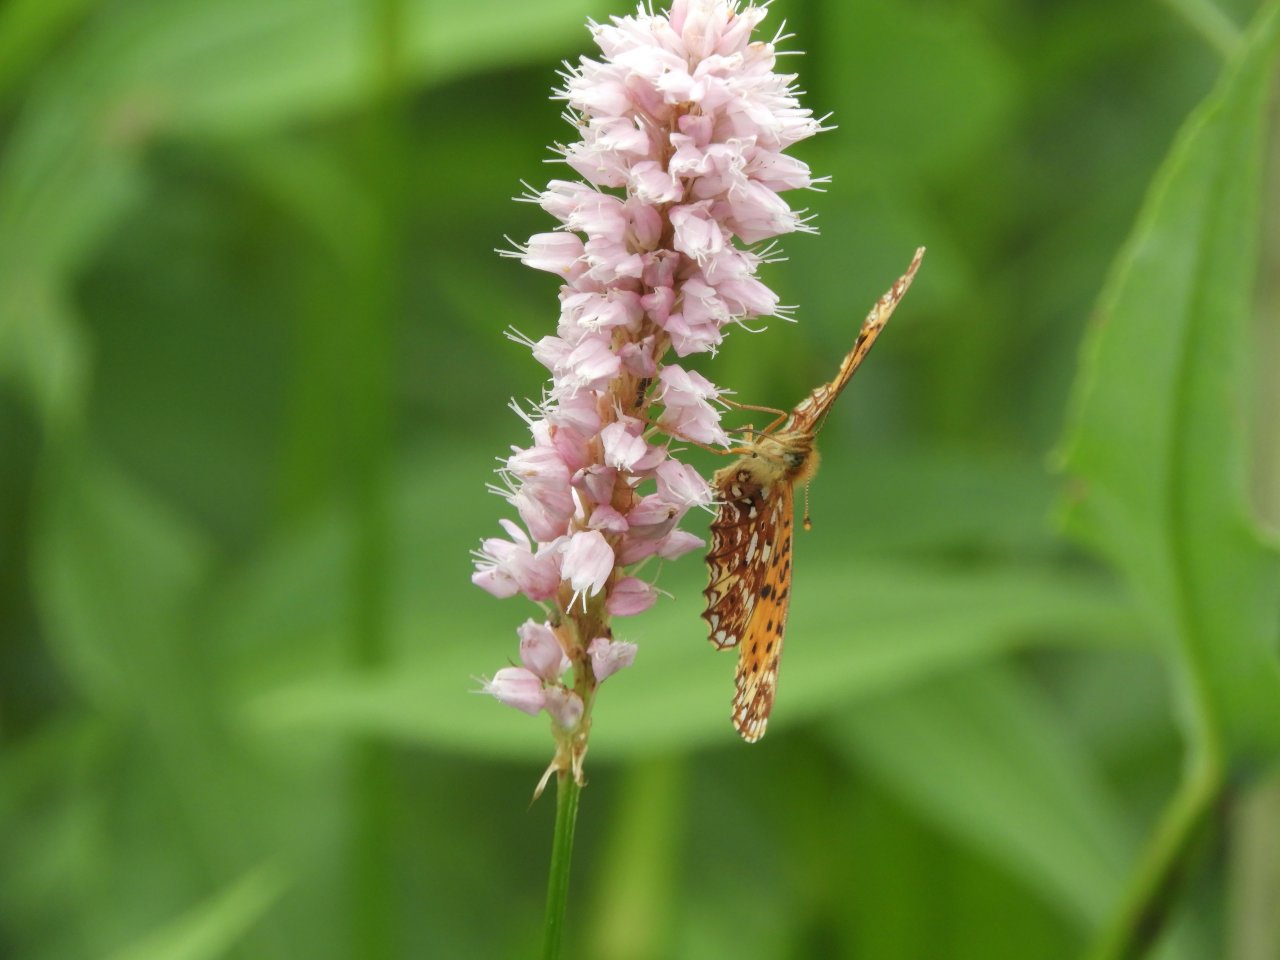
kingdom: Animalia
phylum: Arthropoda
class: Insecta
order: Lepidoptera
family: Nymphalidae
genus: Boloria
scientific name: Boloria selene
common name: Silver-bordered Fritillary
